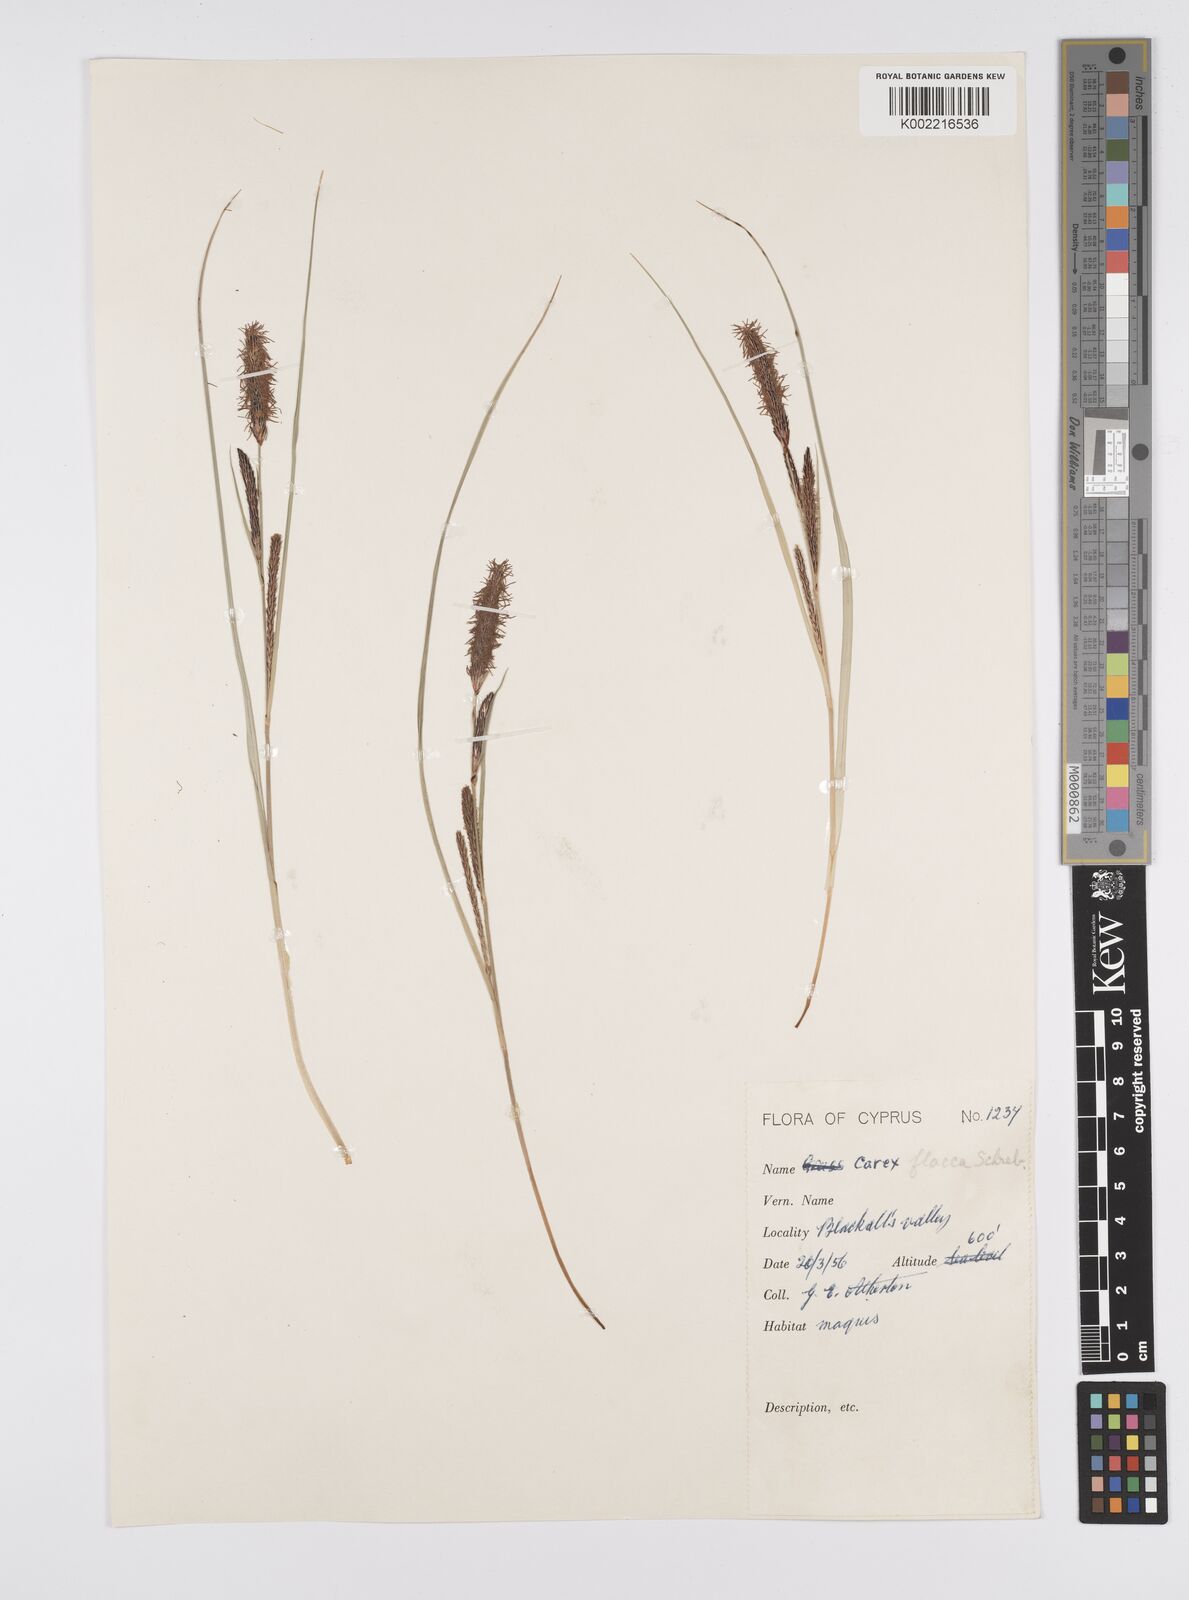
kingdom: Plantae
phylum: Tracheophyta
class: Liliopsida
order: Poales
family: Cyperaceae
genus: Carex
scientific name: Carex flacca
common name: Glaucous sedge
